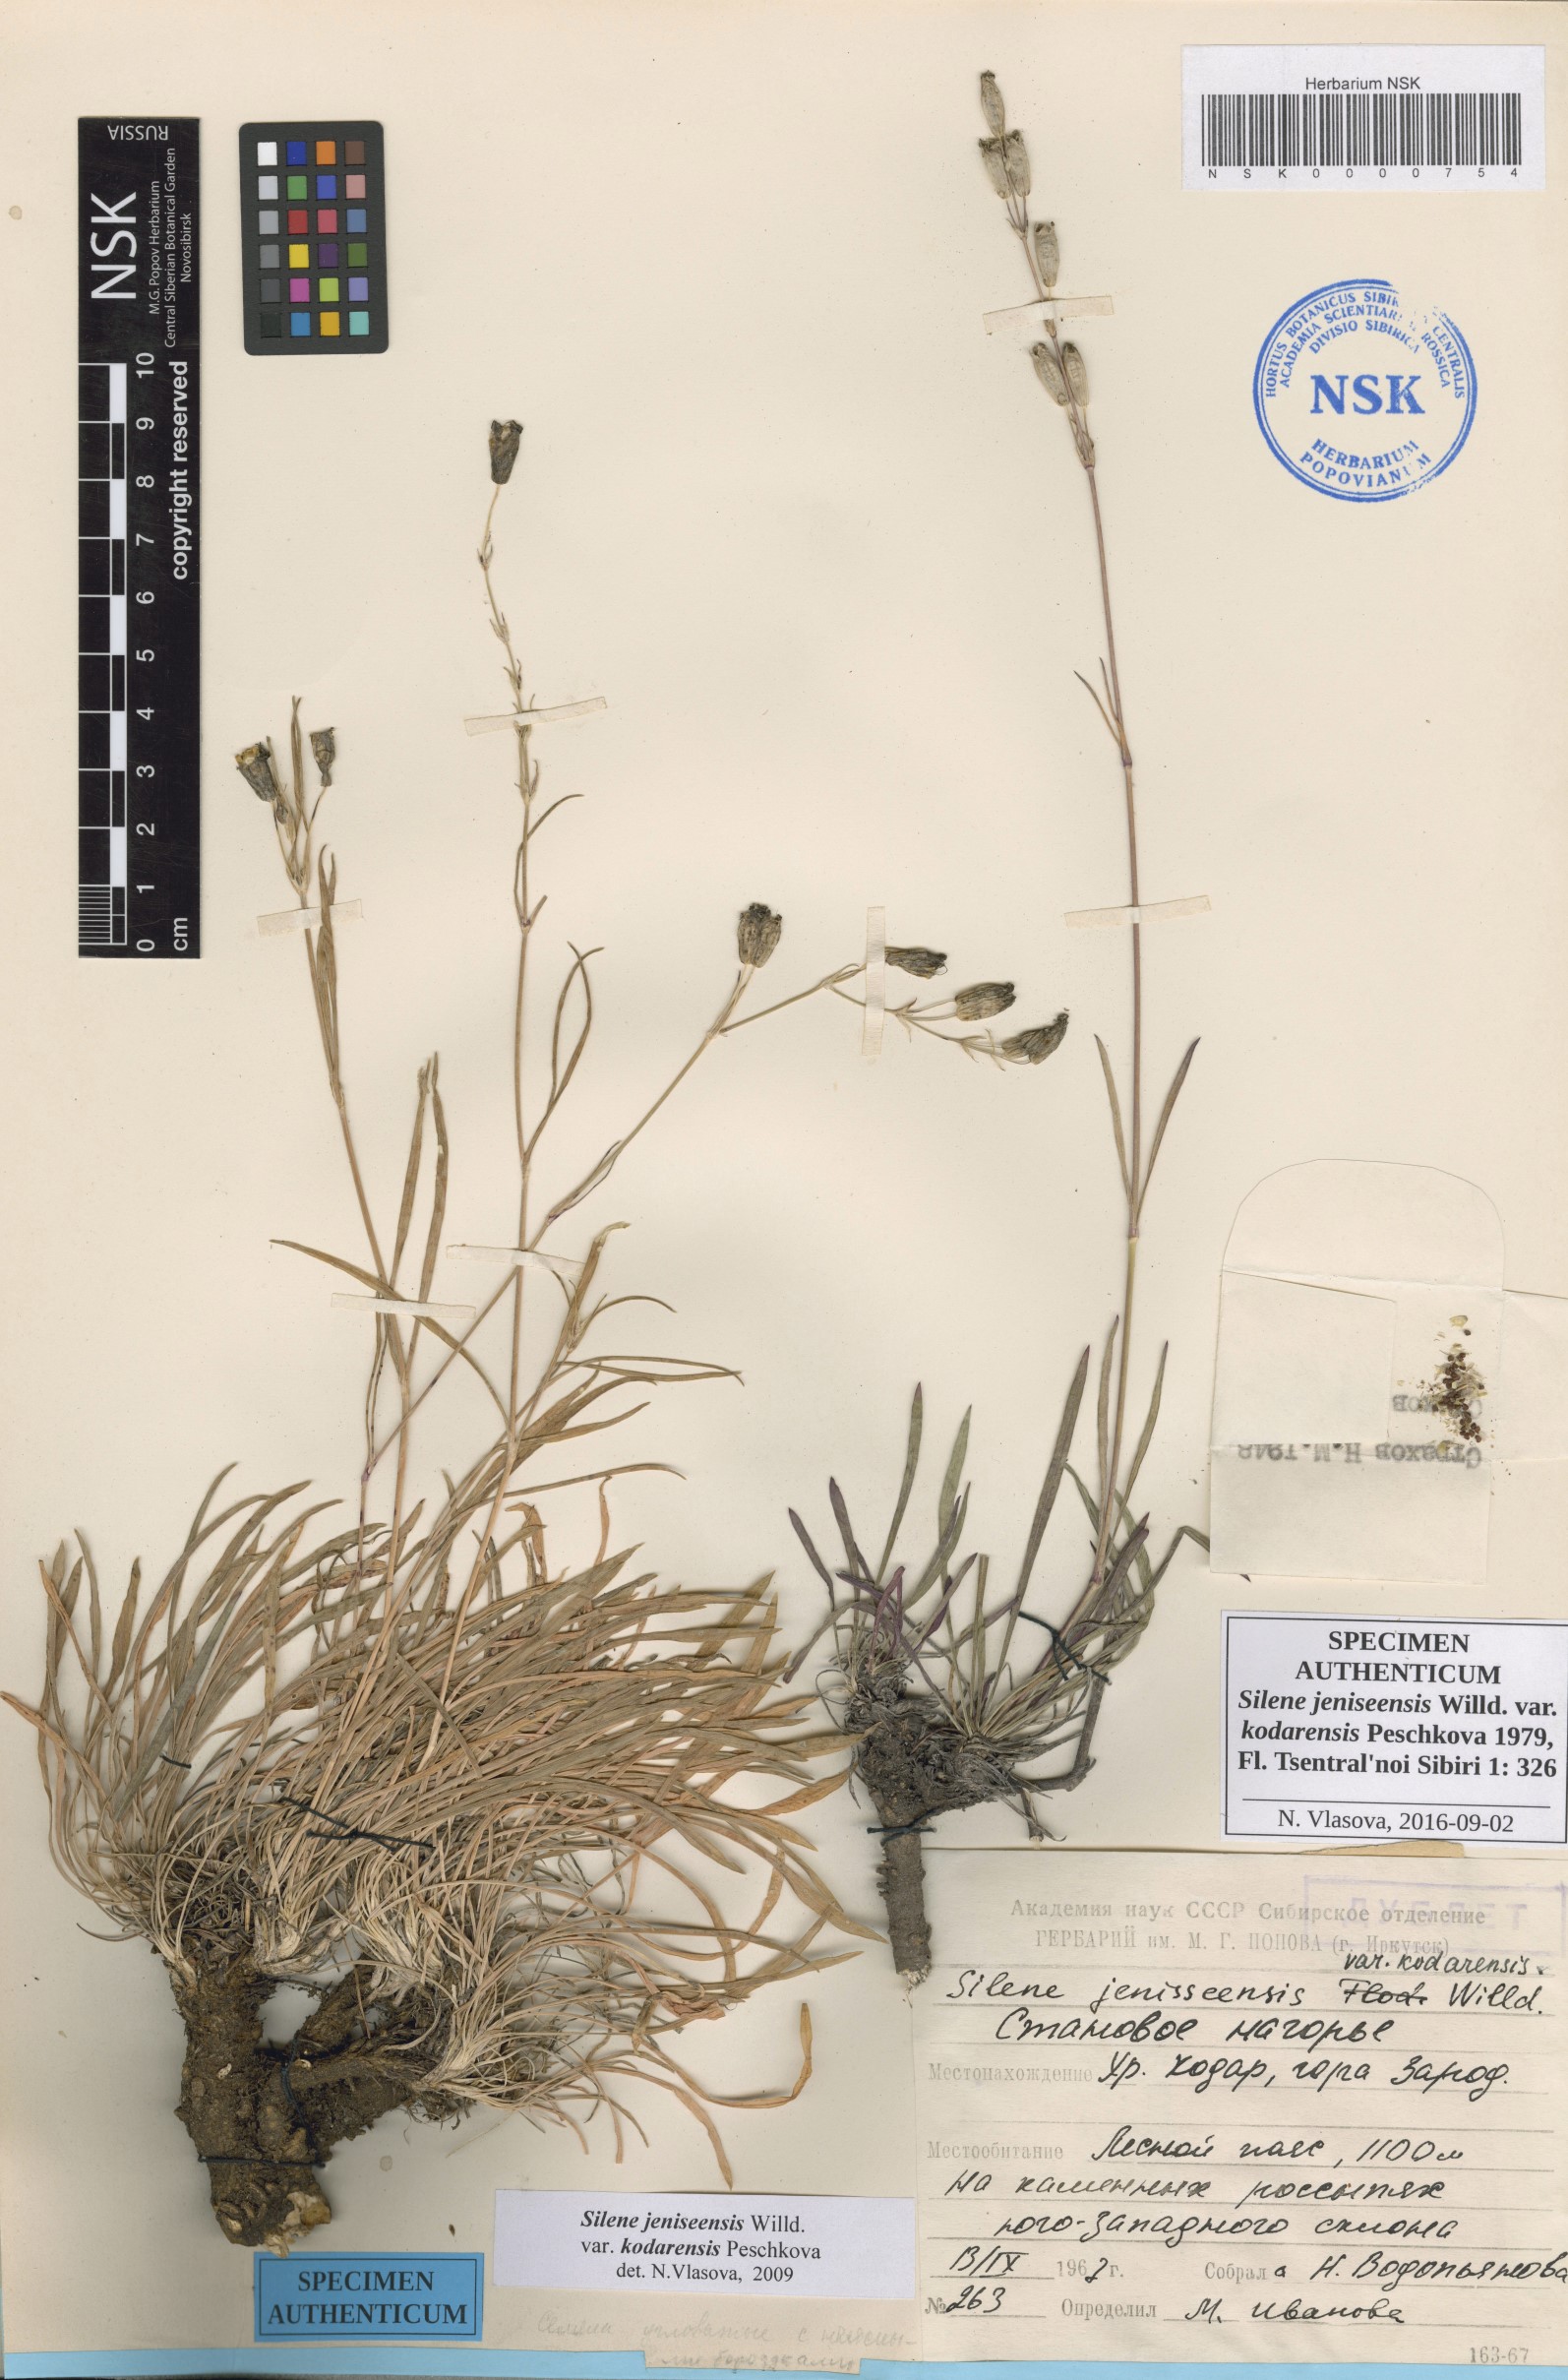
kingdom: Plantae
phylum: Tracheophyta
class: Magnoliopsida
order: Caryophyllales
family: Caryophyllaceae
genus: Silene
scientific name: Silene jeniseensis
